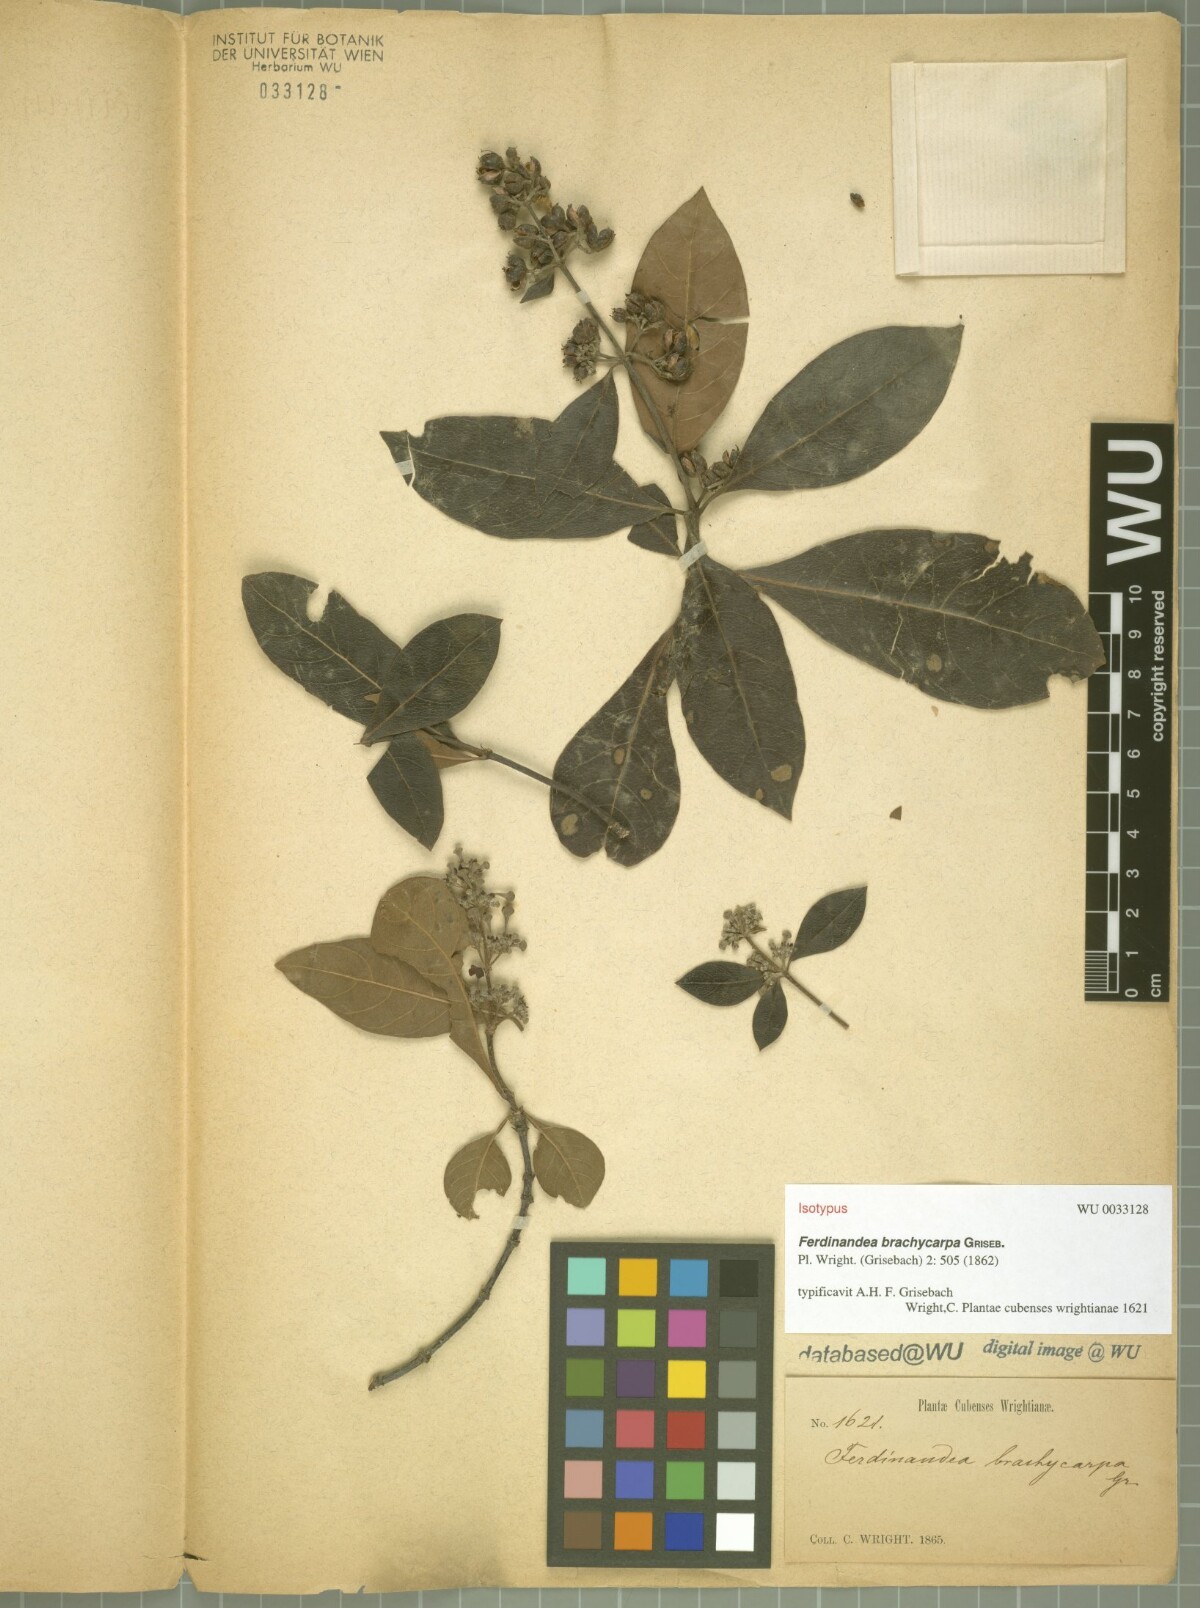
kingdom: Plantae
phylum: Tracheophyta
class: Magnoliopsida
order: Gentianales
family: Rubiaceae
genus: Suberanthus
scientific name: Suberanthus brachycarpus
